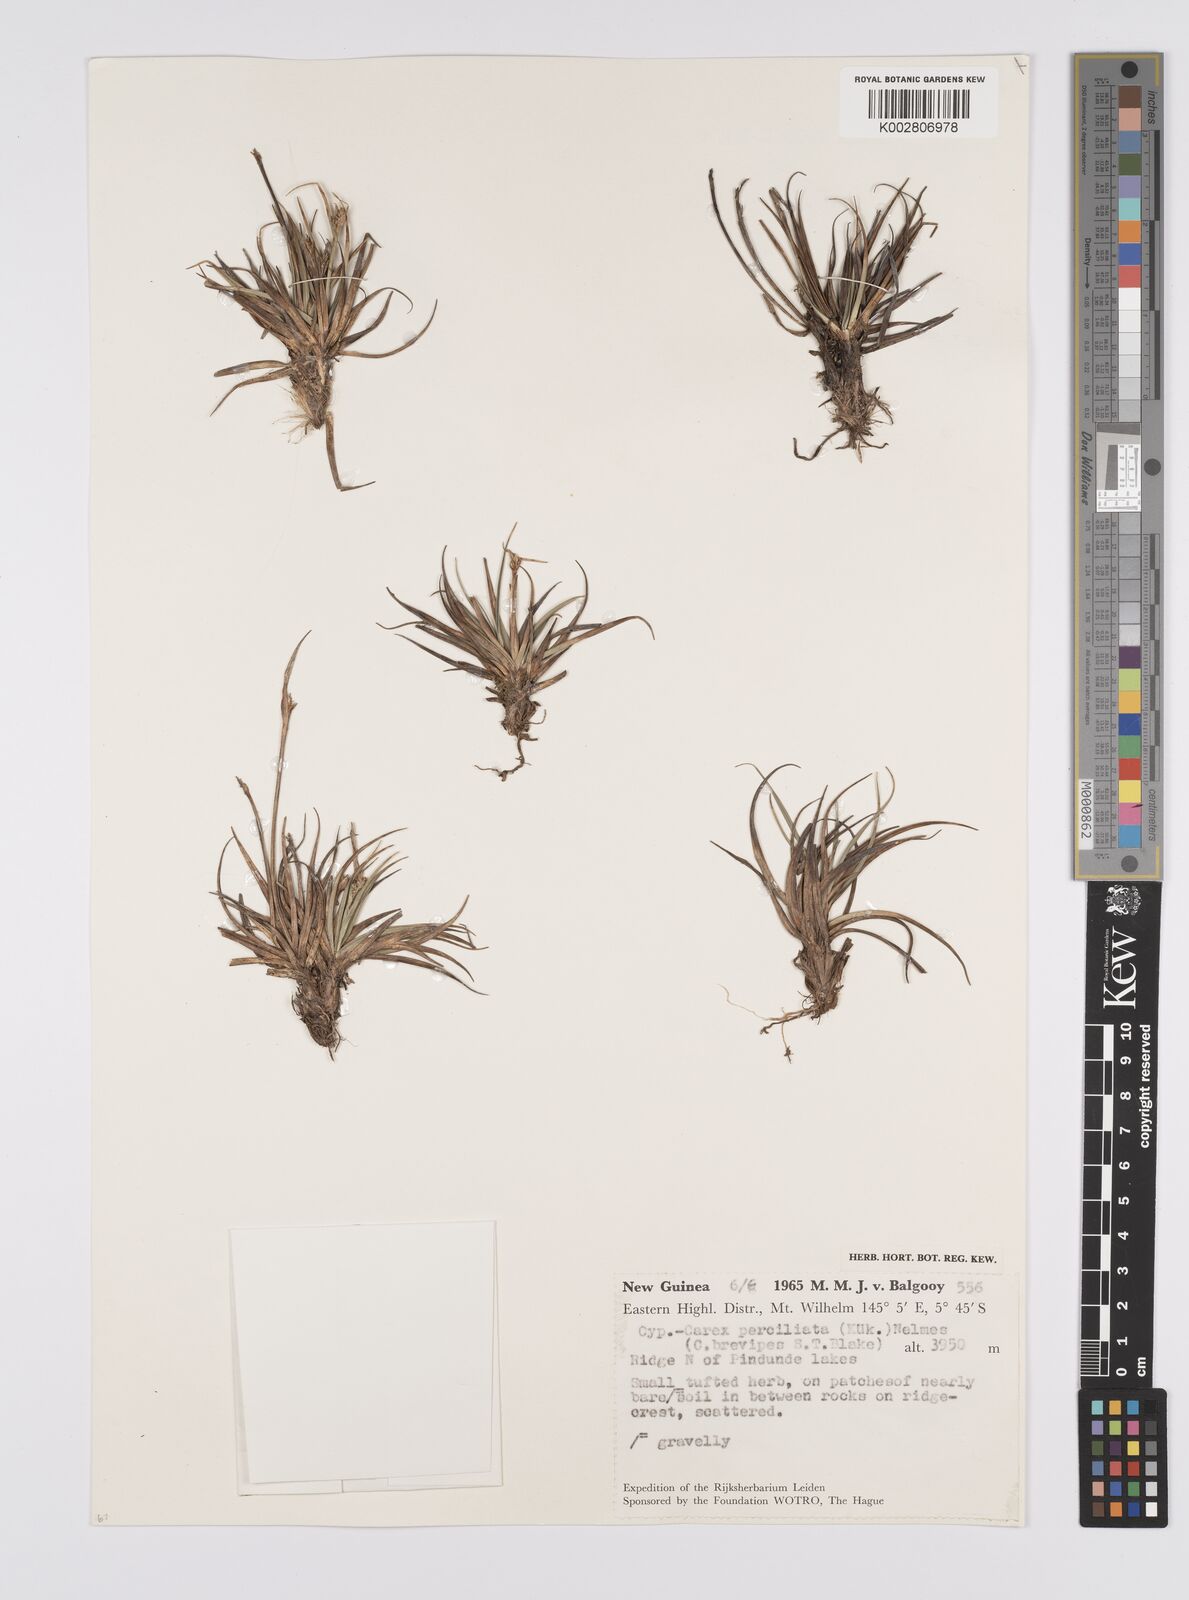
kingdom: Plantae
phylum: Tracheophyta
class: Liliopsida
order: Poales
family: Cyperaceae
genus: Carex
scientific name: Carex breviculmis
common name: Asian shortstem sedge
